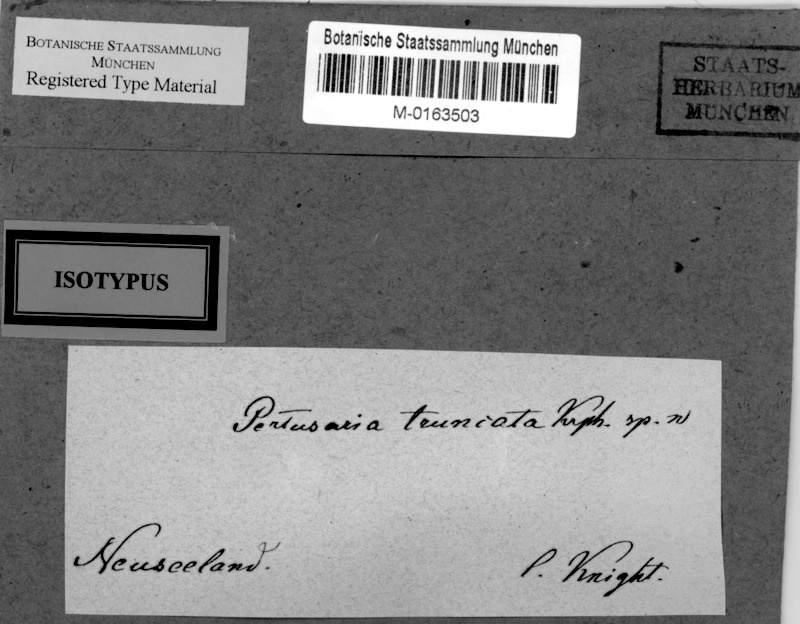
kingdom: Fungi
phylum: Ascomycota
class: Lecanoromycetes
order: Pertusariales
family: Pertusariaceae
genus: Lepra
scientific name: Lepra truncata
